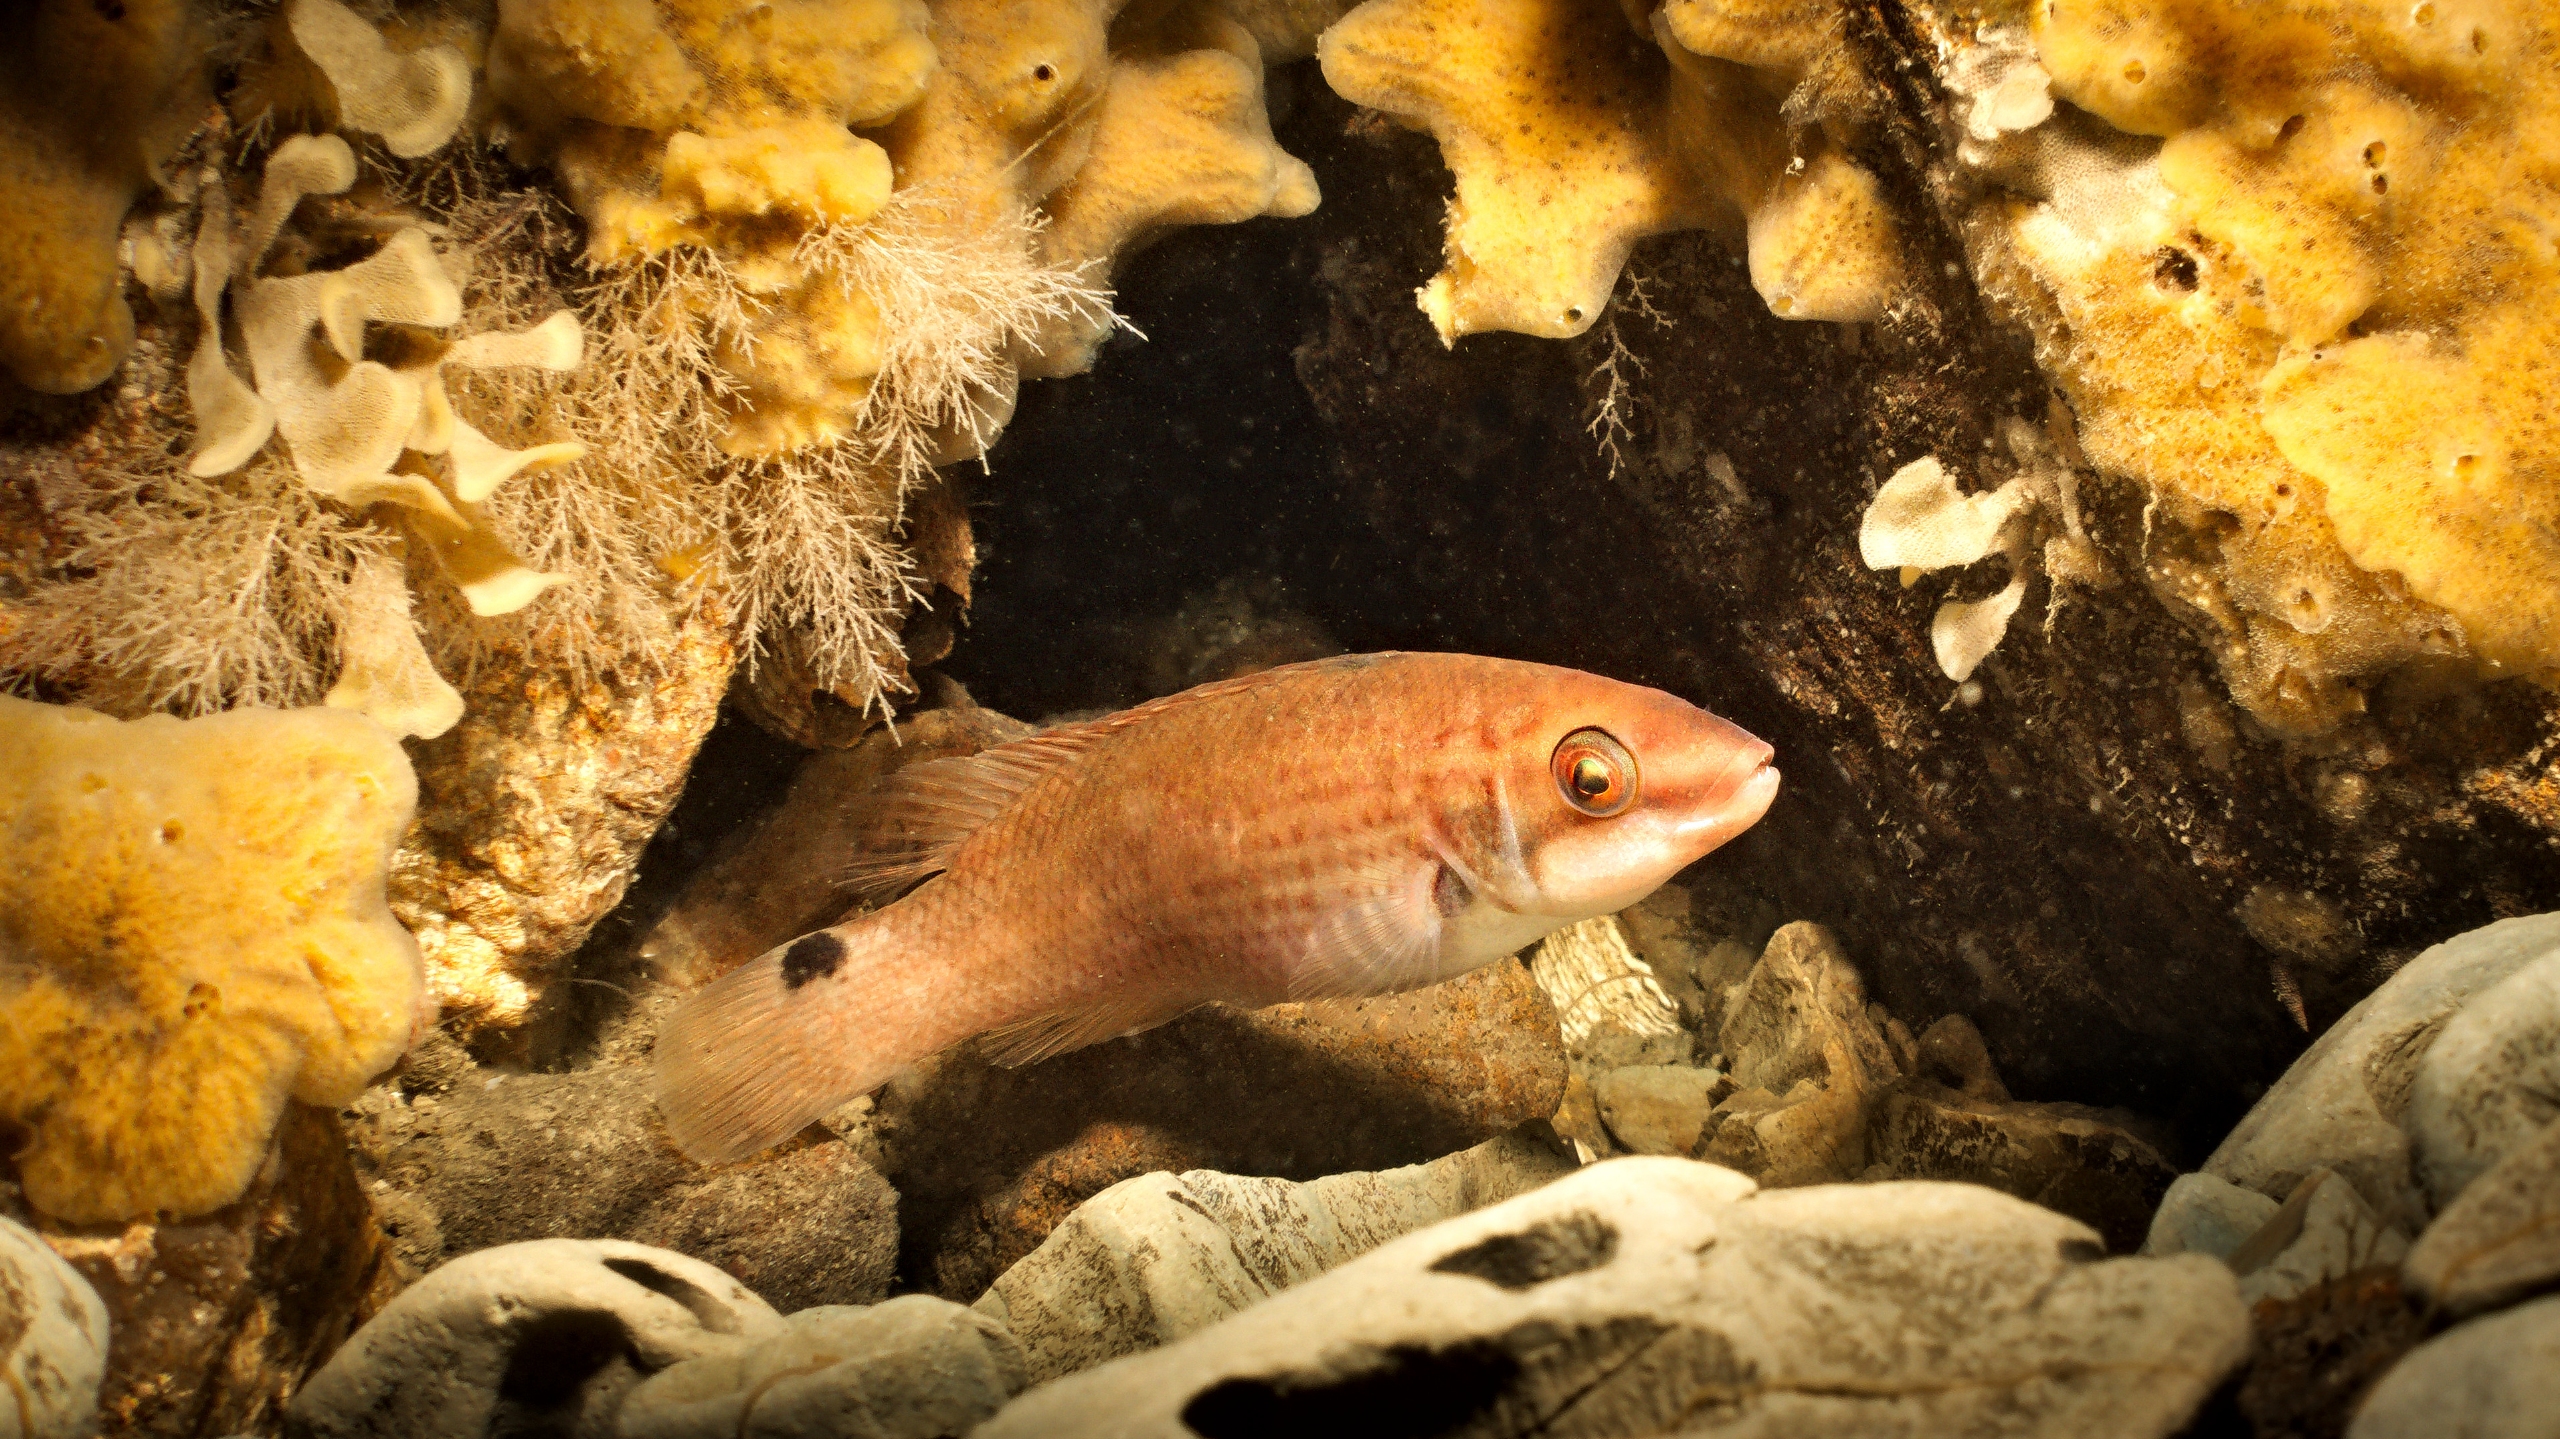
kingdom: Animalia
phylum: Chordata
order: Perciformes
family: Labridae
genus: Ctenolabrus
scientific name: Ctenolabrus rupestris
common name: Havkarusse
